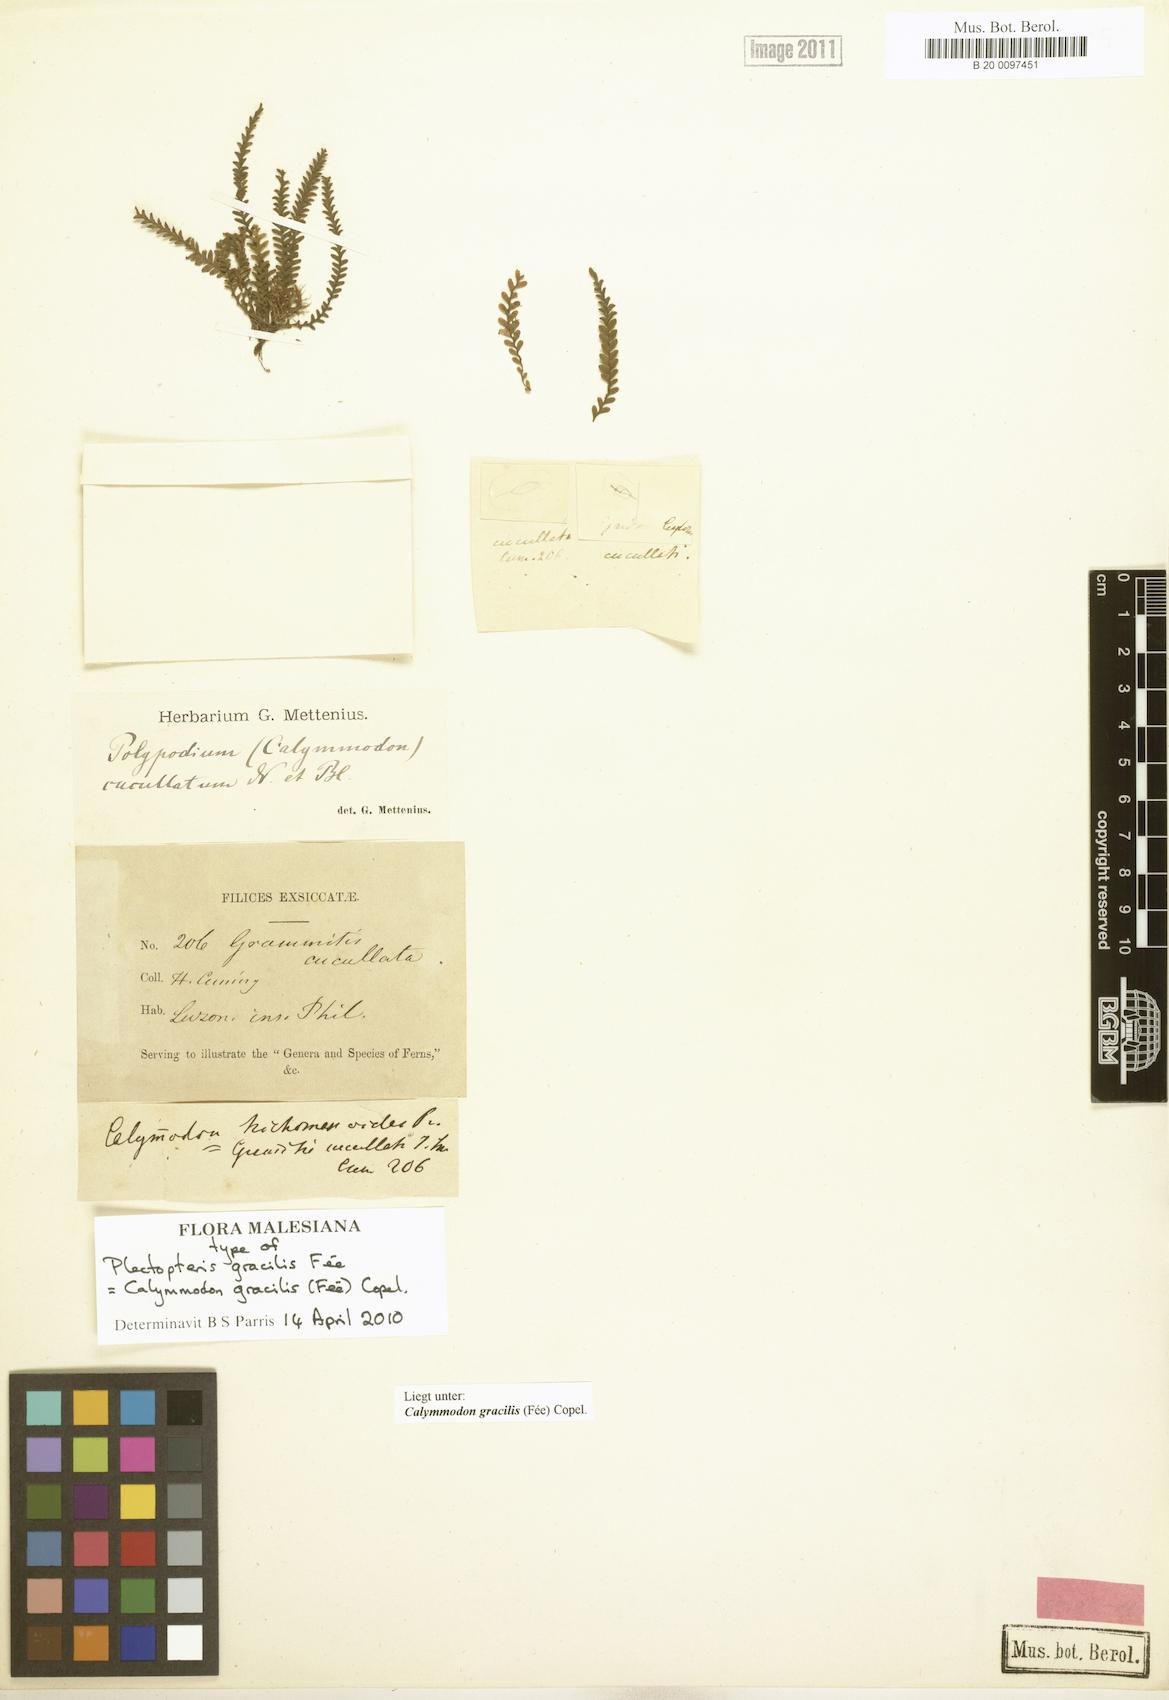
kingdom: Plantae
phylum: Tracheophyta
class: Polypodiopsida
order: Polypodiales
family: Polypodiaceae
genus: Calymmodon
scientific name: Calymmodon gracilis
